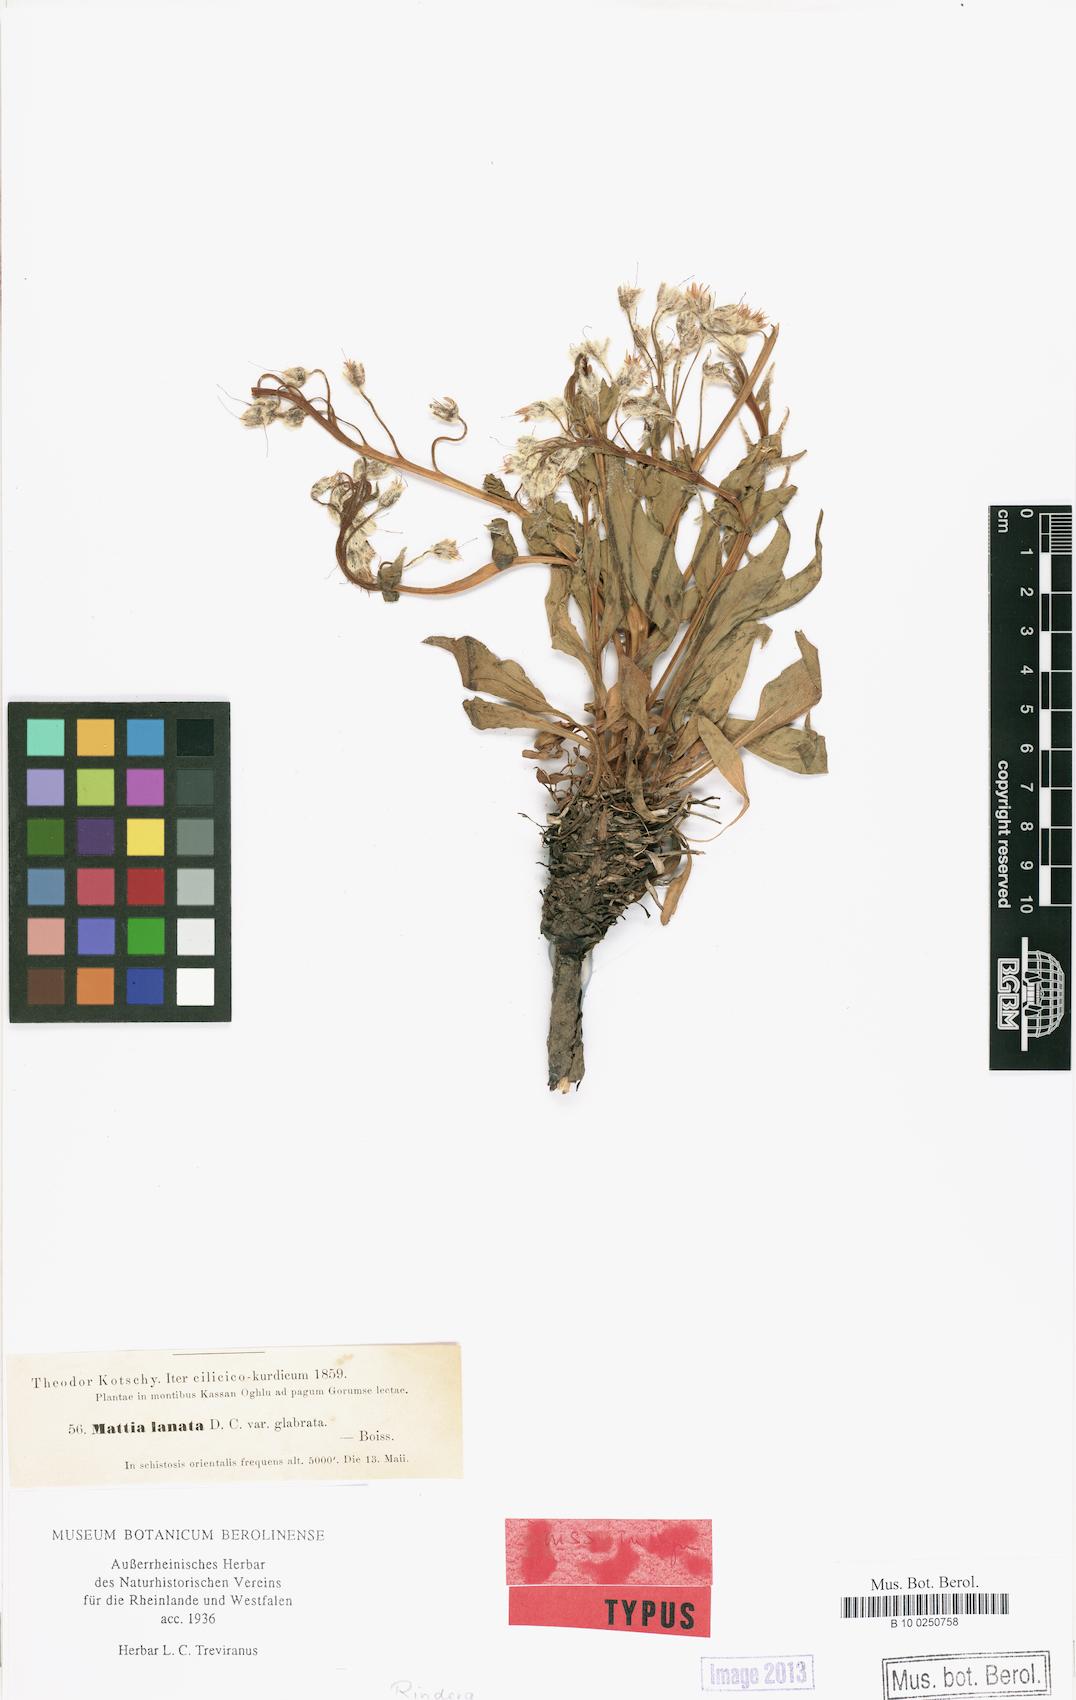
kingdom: Plantae
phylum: Tracheophyta
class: Magnoliopsida
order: Boraginales
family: Boraginaceae
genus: Rindera
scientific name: Rindera lanata
